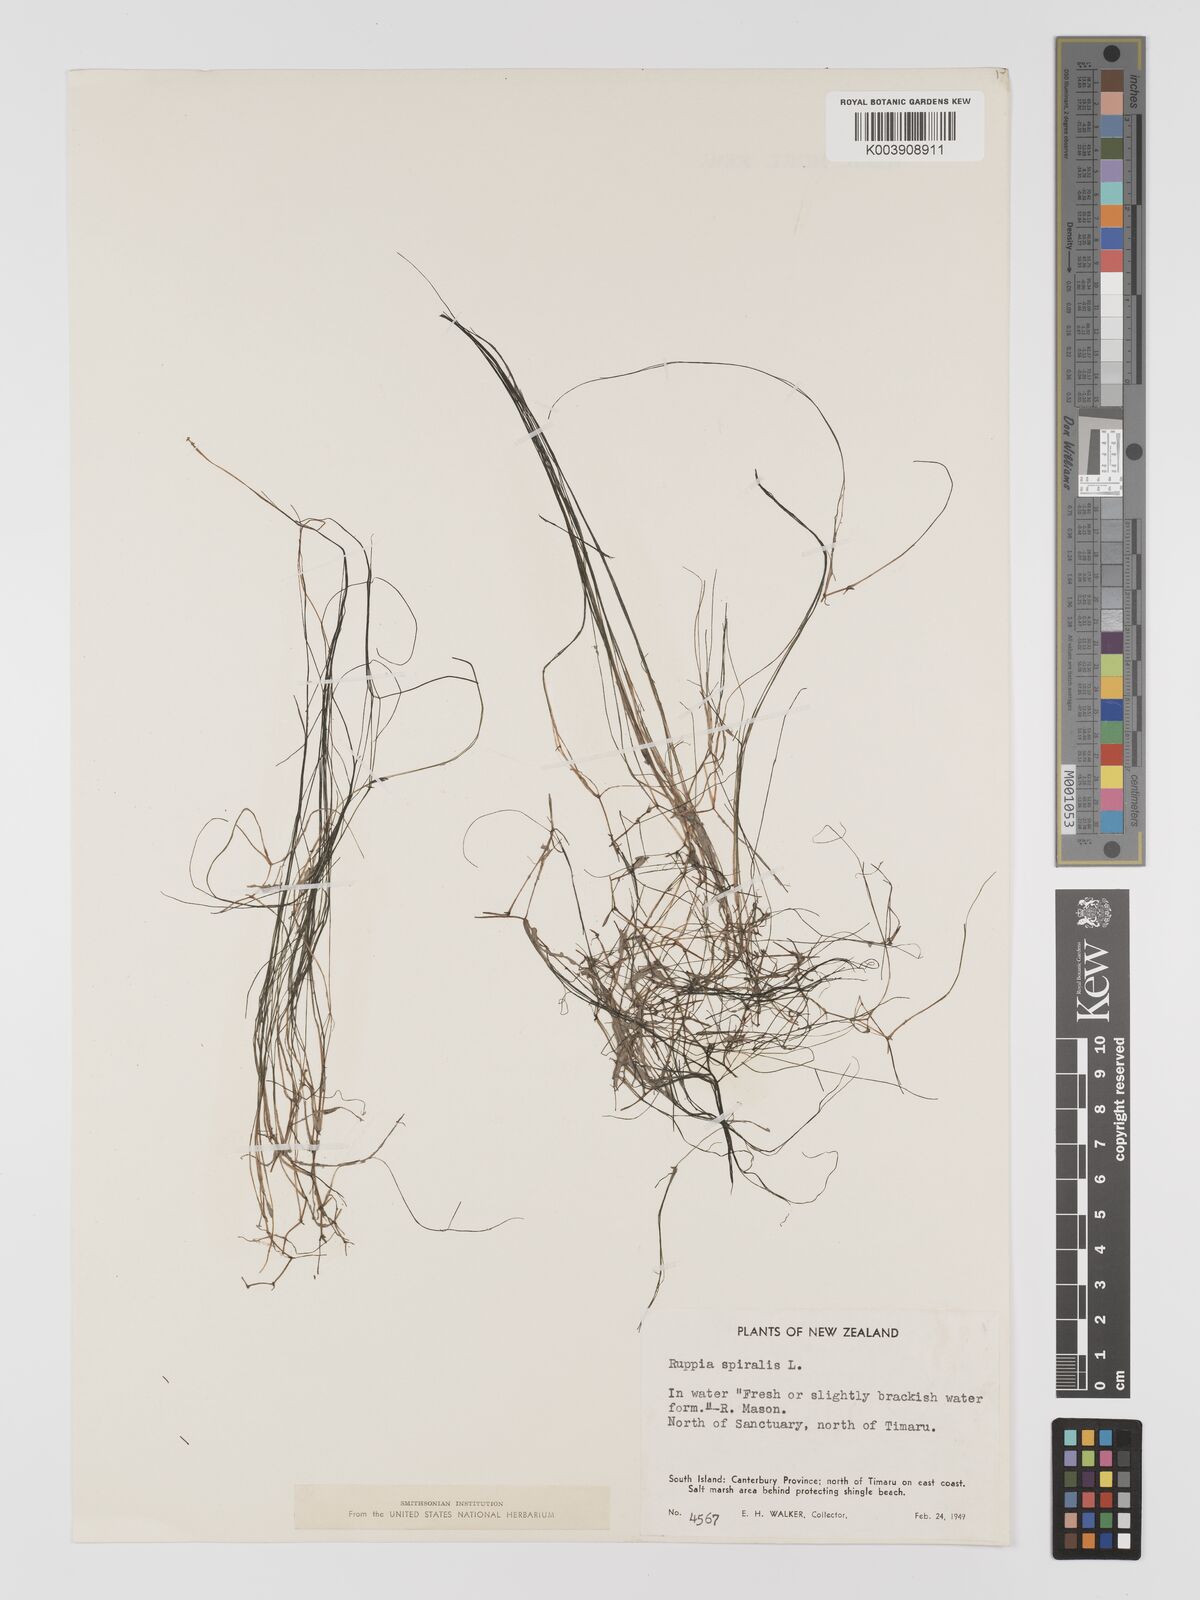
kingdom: Plantae
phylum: Tracheophyta
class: Liliopsida
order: Alismatales
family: Ruppiaceae
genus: Ruppia
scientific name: Ruppia
